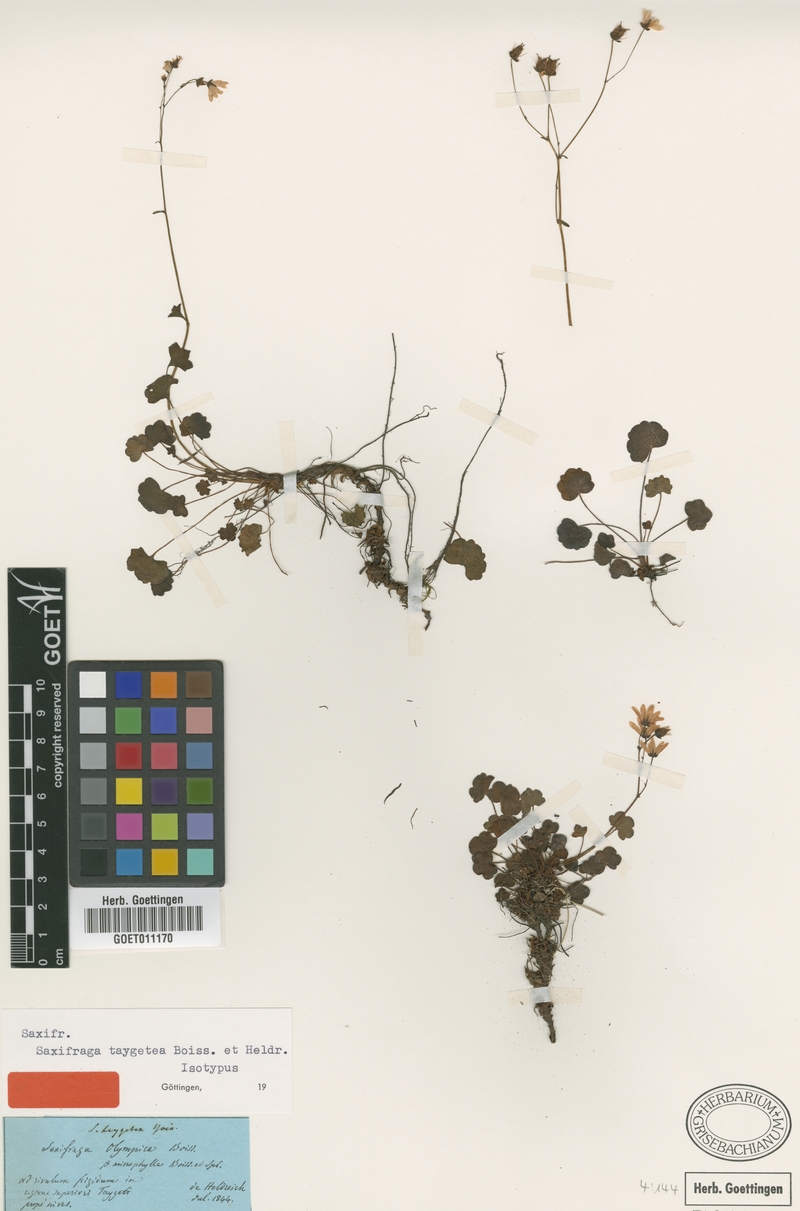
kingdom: Plantae
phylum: Tracheophyta
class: Magnoliopsida
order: Saxifragales
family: Saxifragaceae
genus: Saxifraga
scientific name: Saxifraga taygetea
